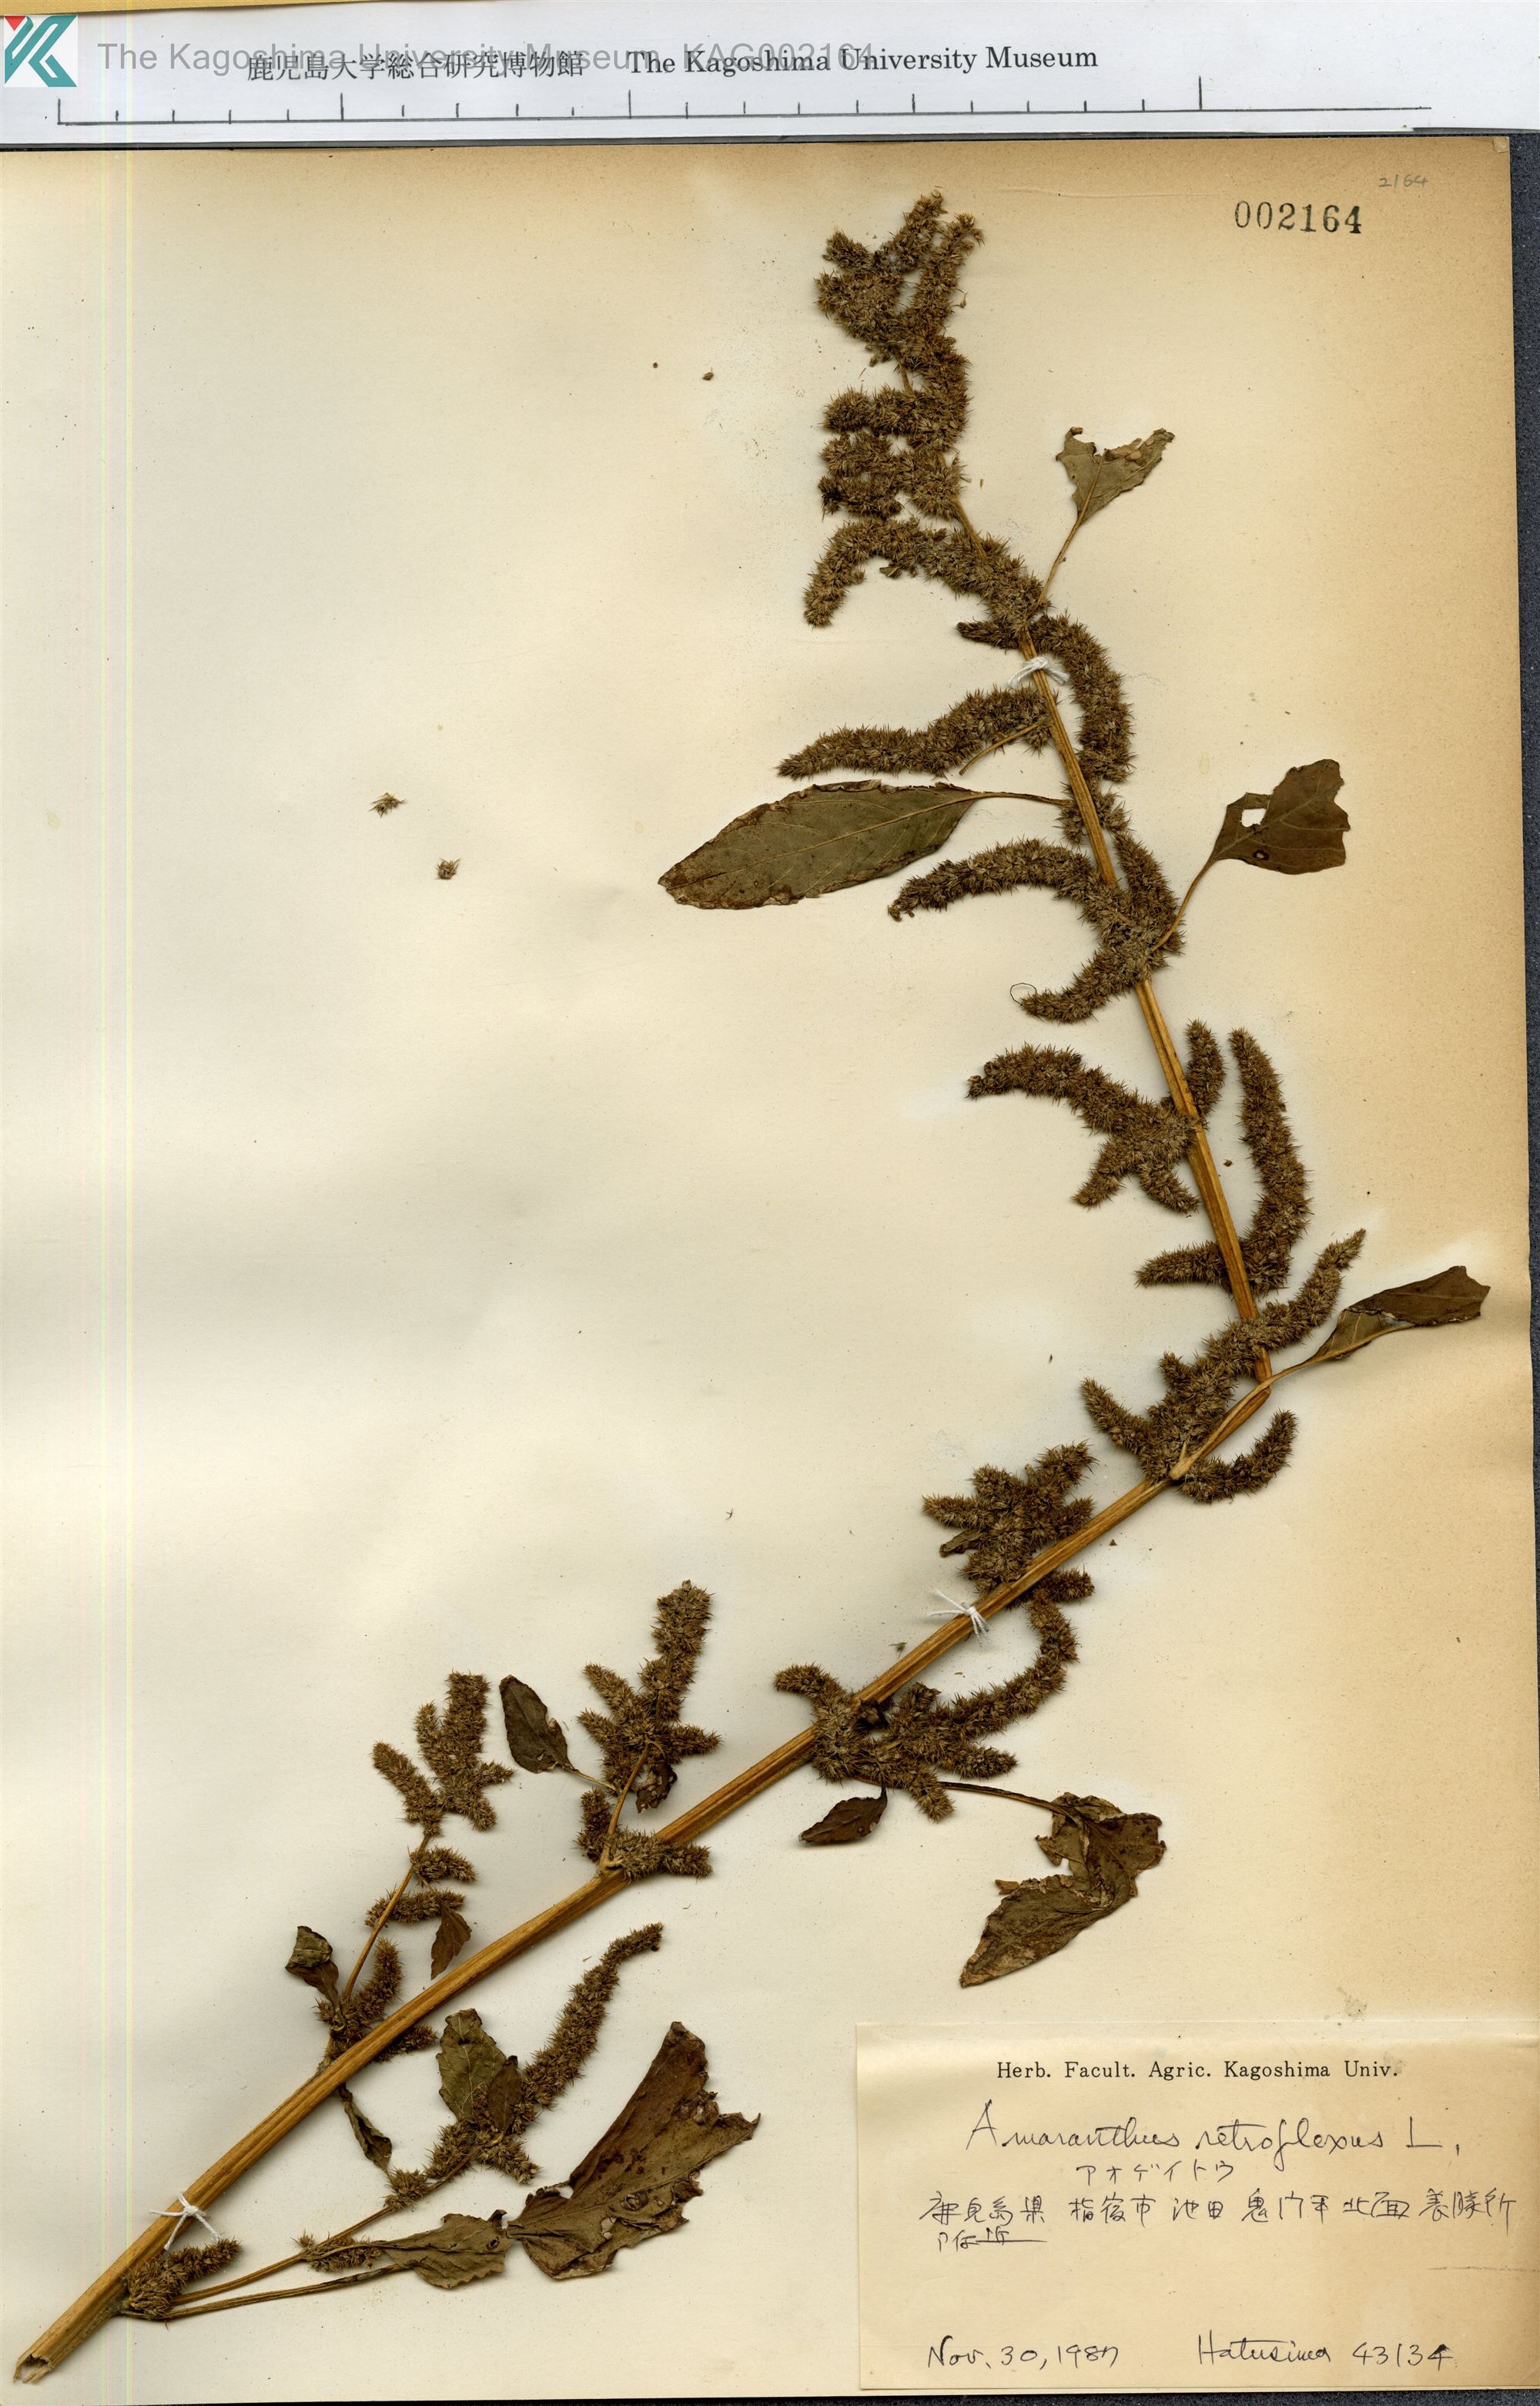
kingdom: Plantae
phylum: Tracheophyta
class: Magnoliopsida
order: Caryophyllales
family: Amaranthaceae
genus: Amaranthus
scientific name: Amaranthus retroflexus
